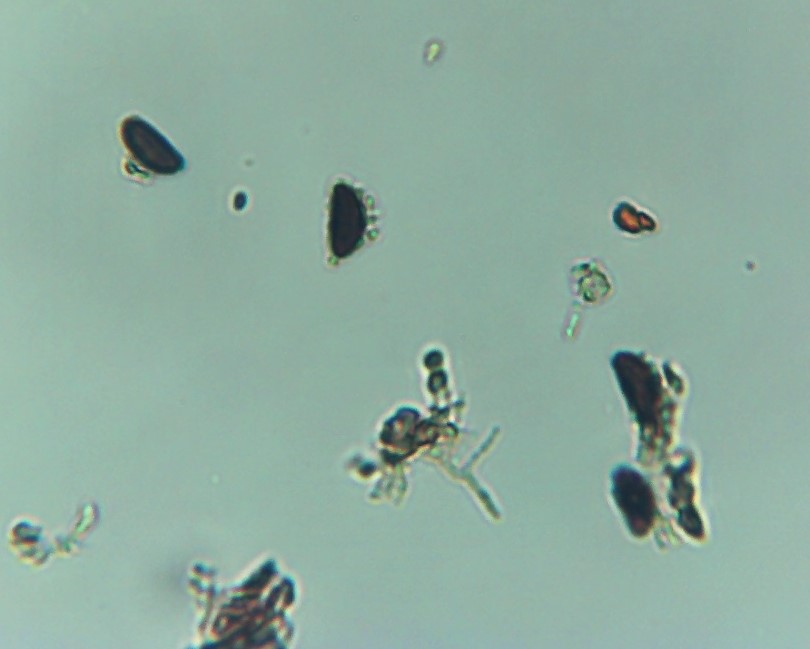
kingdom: Fungi
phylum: Ascomycota
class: Sordariomycetes
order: Xylariales
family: Hypoxylaceae
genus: Jackrogersella
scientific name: Jackrogersella cohaerens
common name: sammenflydende kulbær
